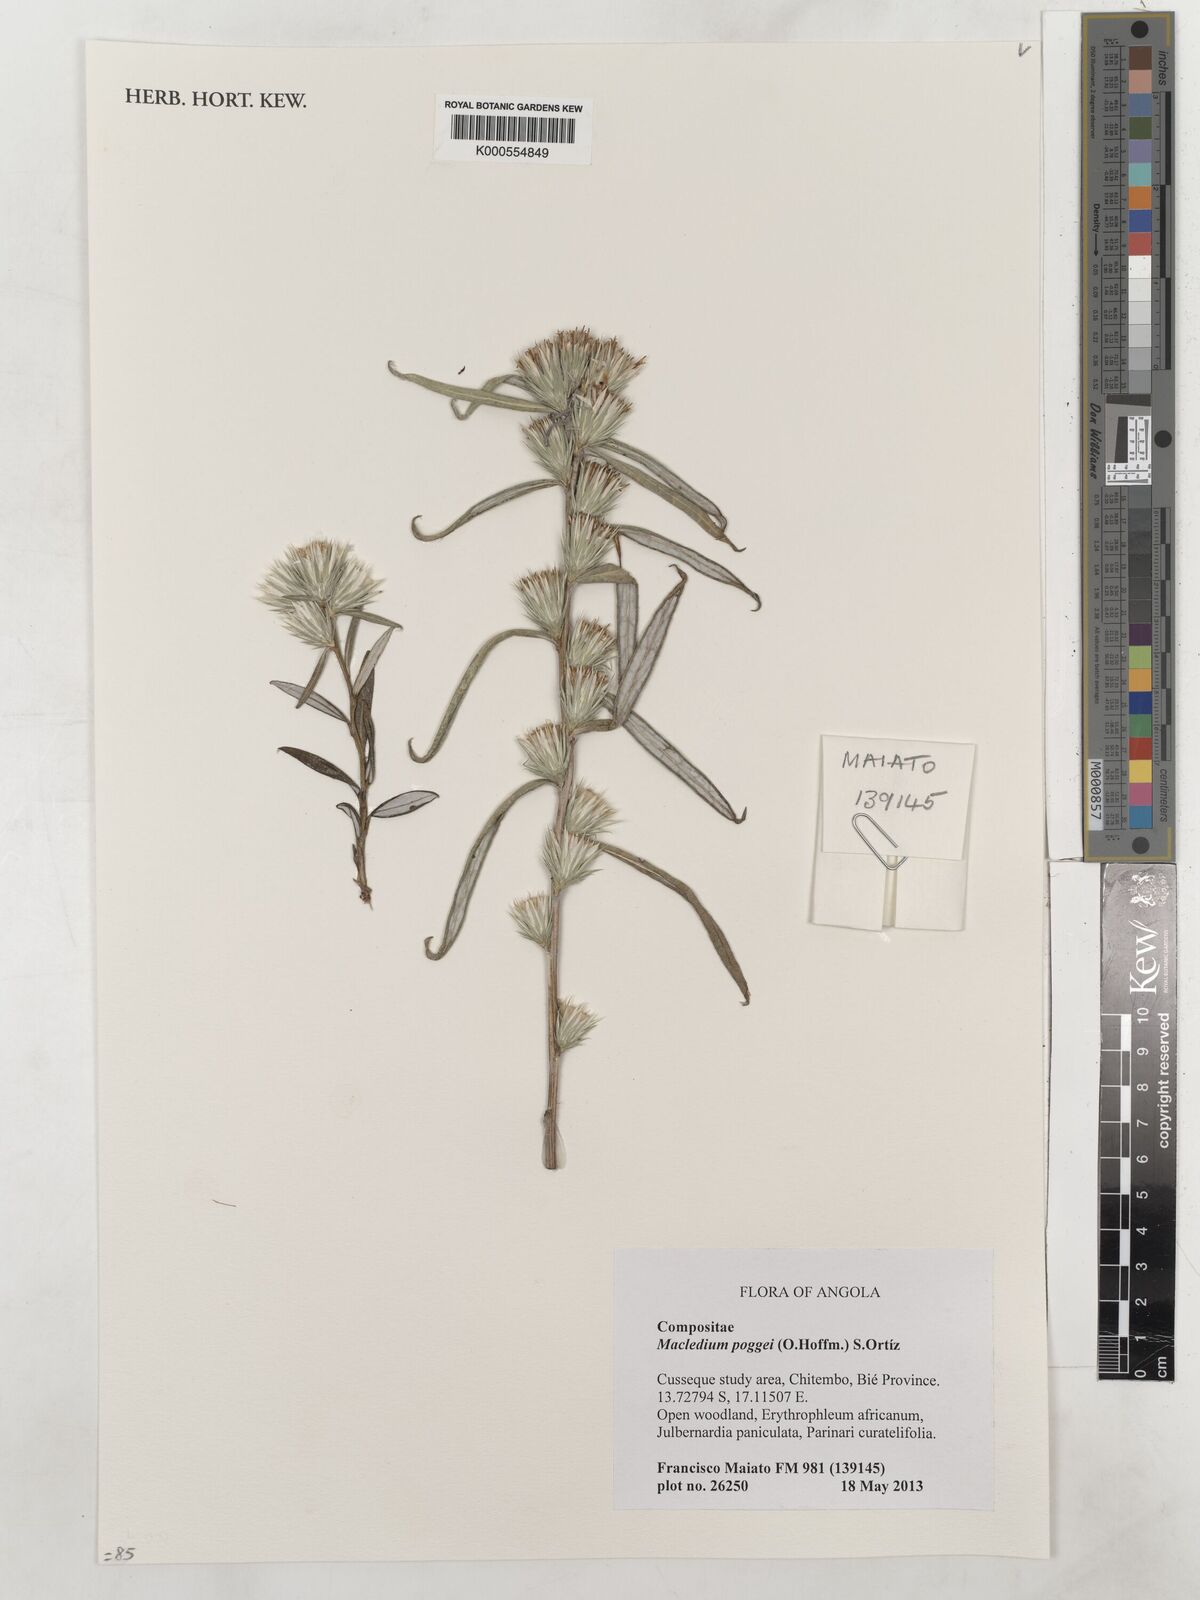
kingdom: Plantae
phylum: Tracheophyta
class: Magnoliopsida
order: Asterales
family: Asteraceae
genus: Macledium
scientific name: Macledium poggei
